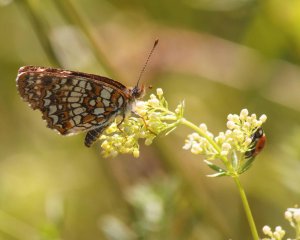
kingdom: Animalia
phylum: Arthropoda
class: Insecta
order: Lepidoptera
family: Nymphalidae
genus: Chlosyne
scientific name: Chlosyne harrisii
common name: Harris's Checkerspot
